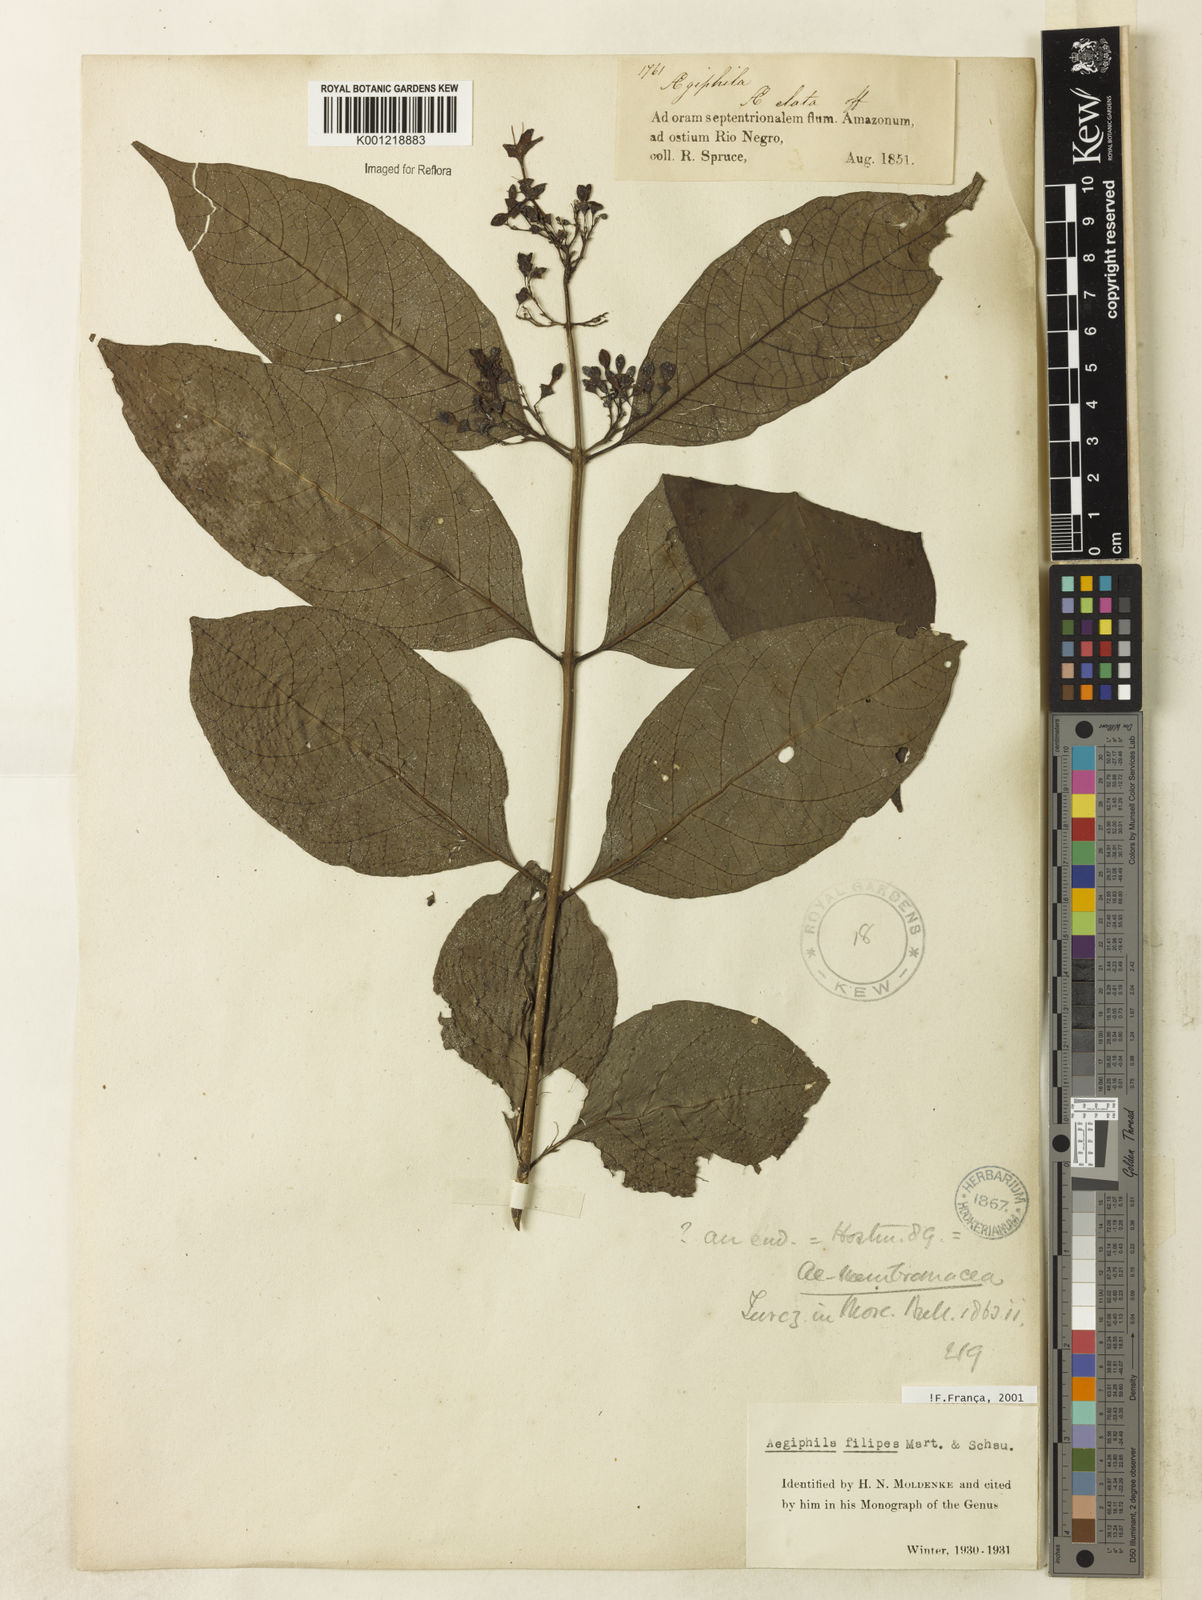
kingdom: Plantae
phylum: Tracheophyta
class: Magnoliopsida
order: Lamiales
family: Lamiaceae
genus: Aegiphila
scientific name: Aegiphila filipes
